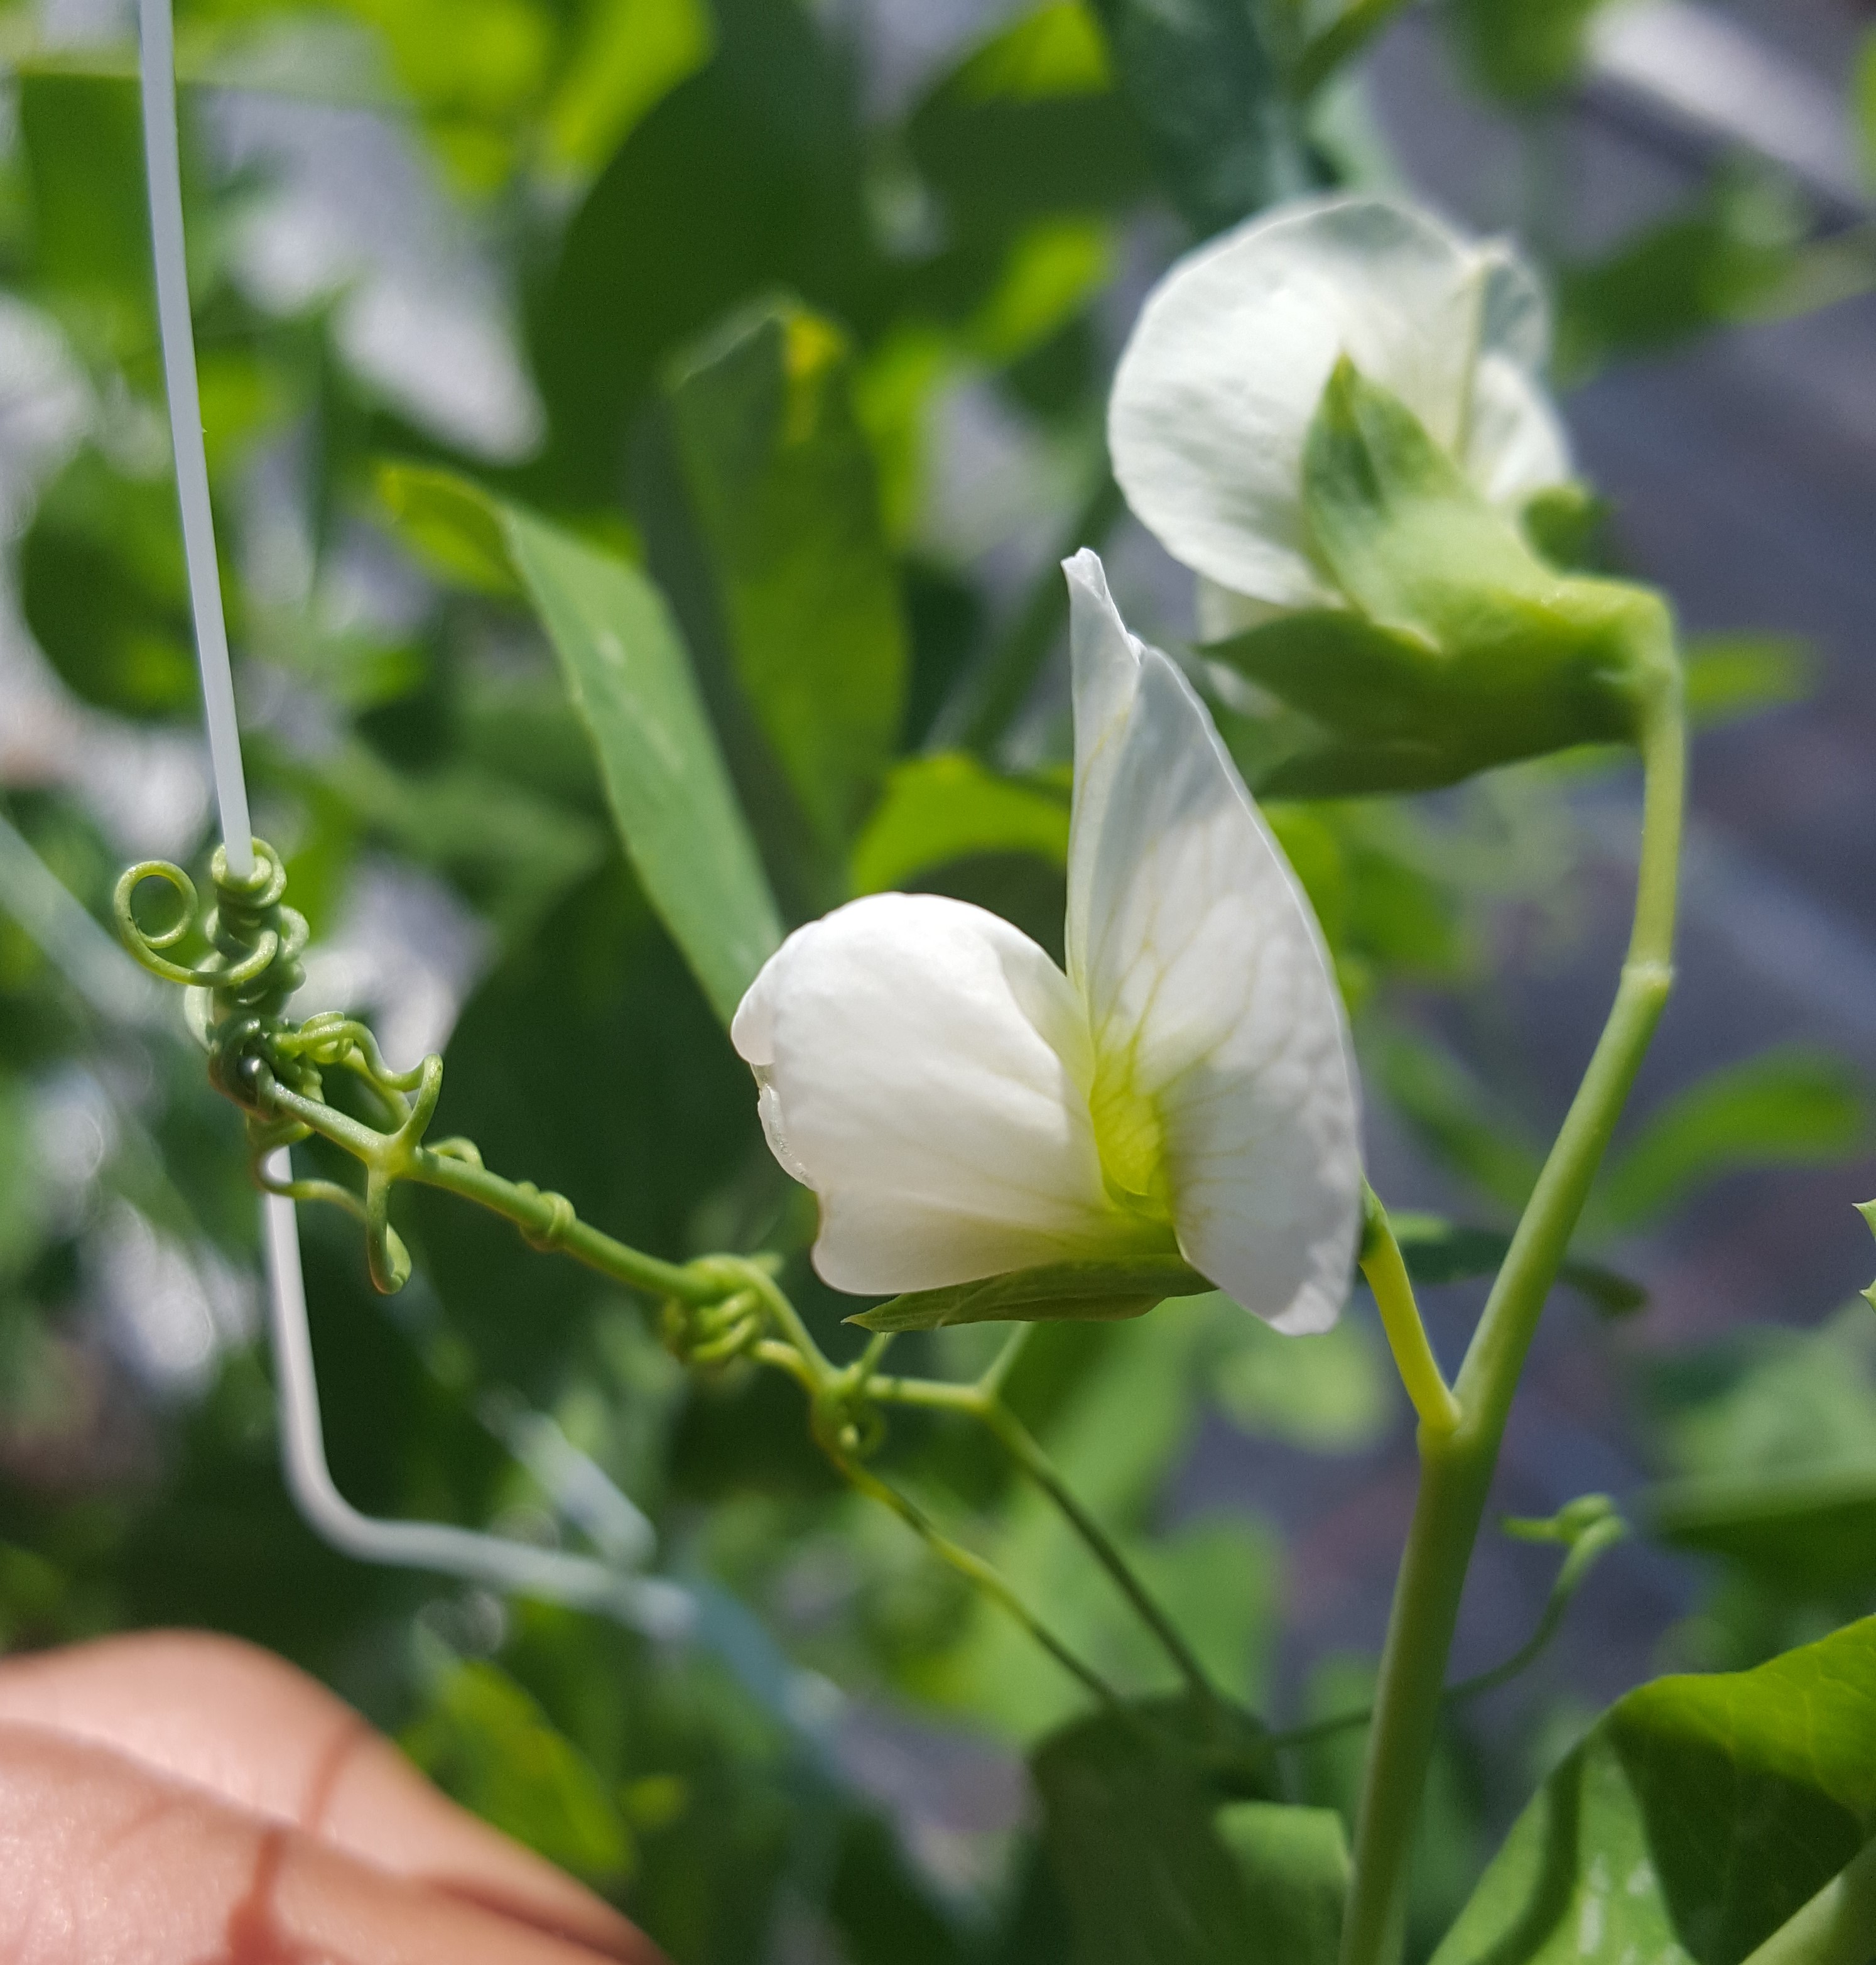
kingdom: Plantae
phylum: Tracheophyta
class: Magnoliopsida
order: Fabales
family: Fabaceae
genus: Lathyrus
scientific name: Lathyrus oleraceus
